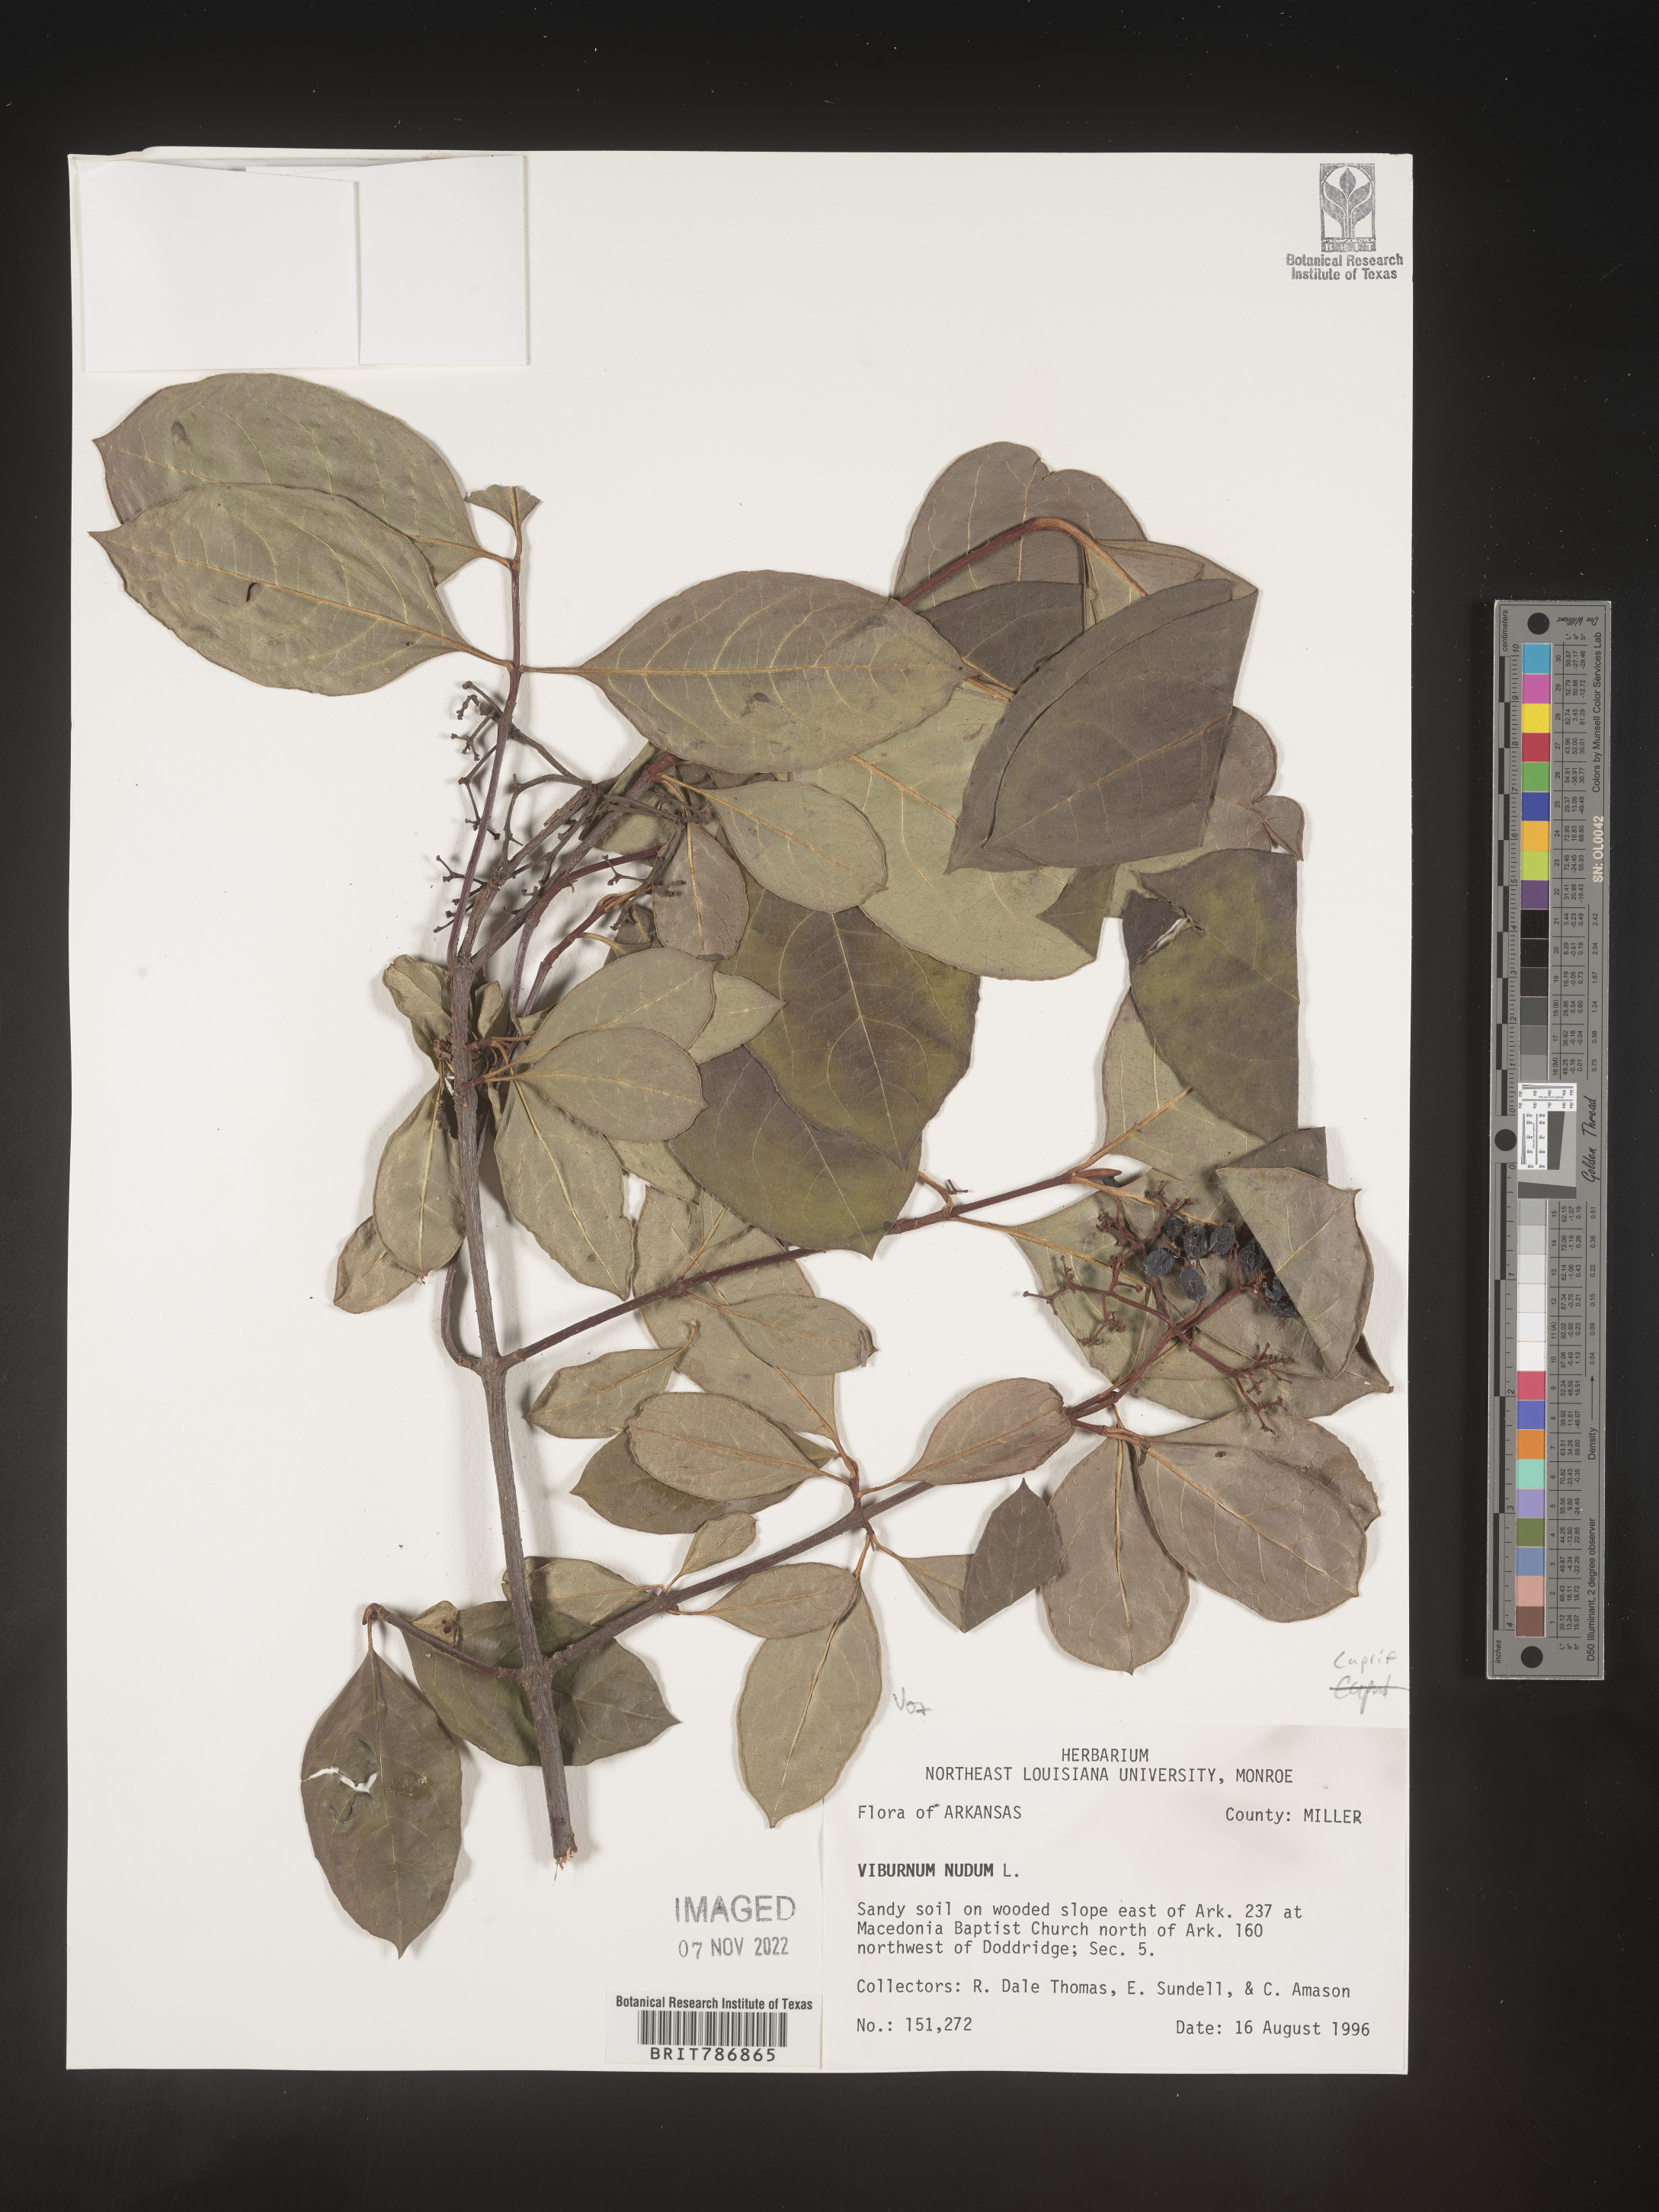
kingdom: Plantae
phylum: Tracheophyta
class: Magnoliopsida
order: Dipsacales
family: Viburnaceae
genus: Viburnum
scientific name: Viburnum nudum
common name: Possum haw
